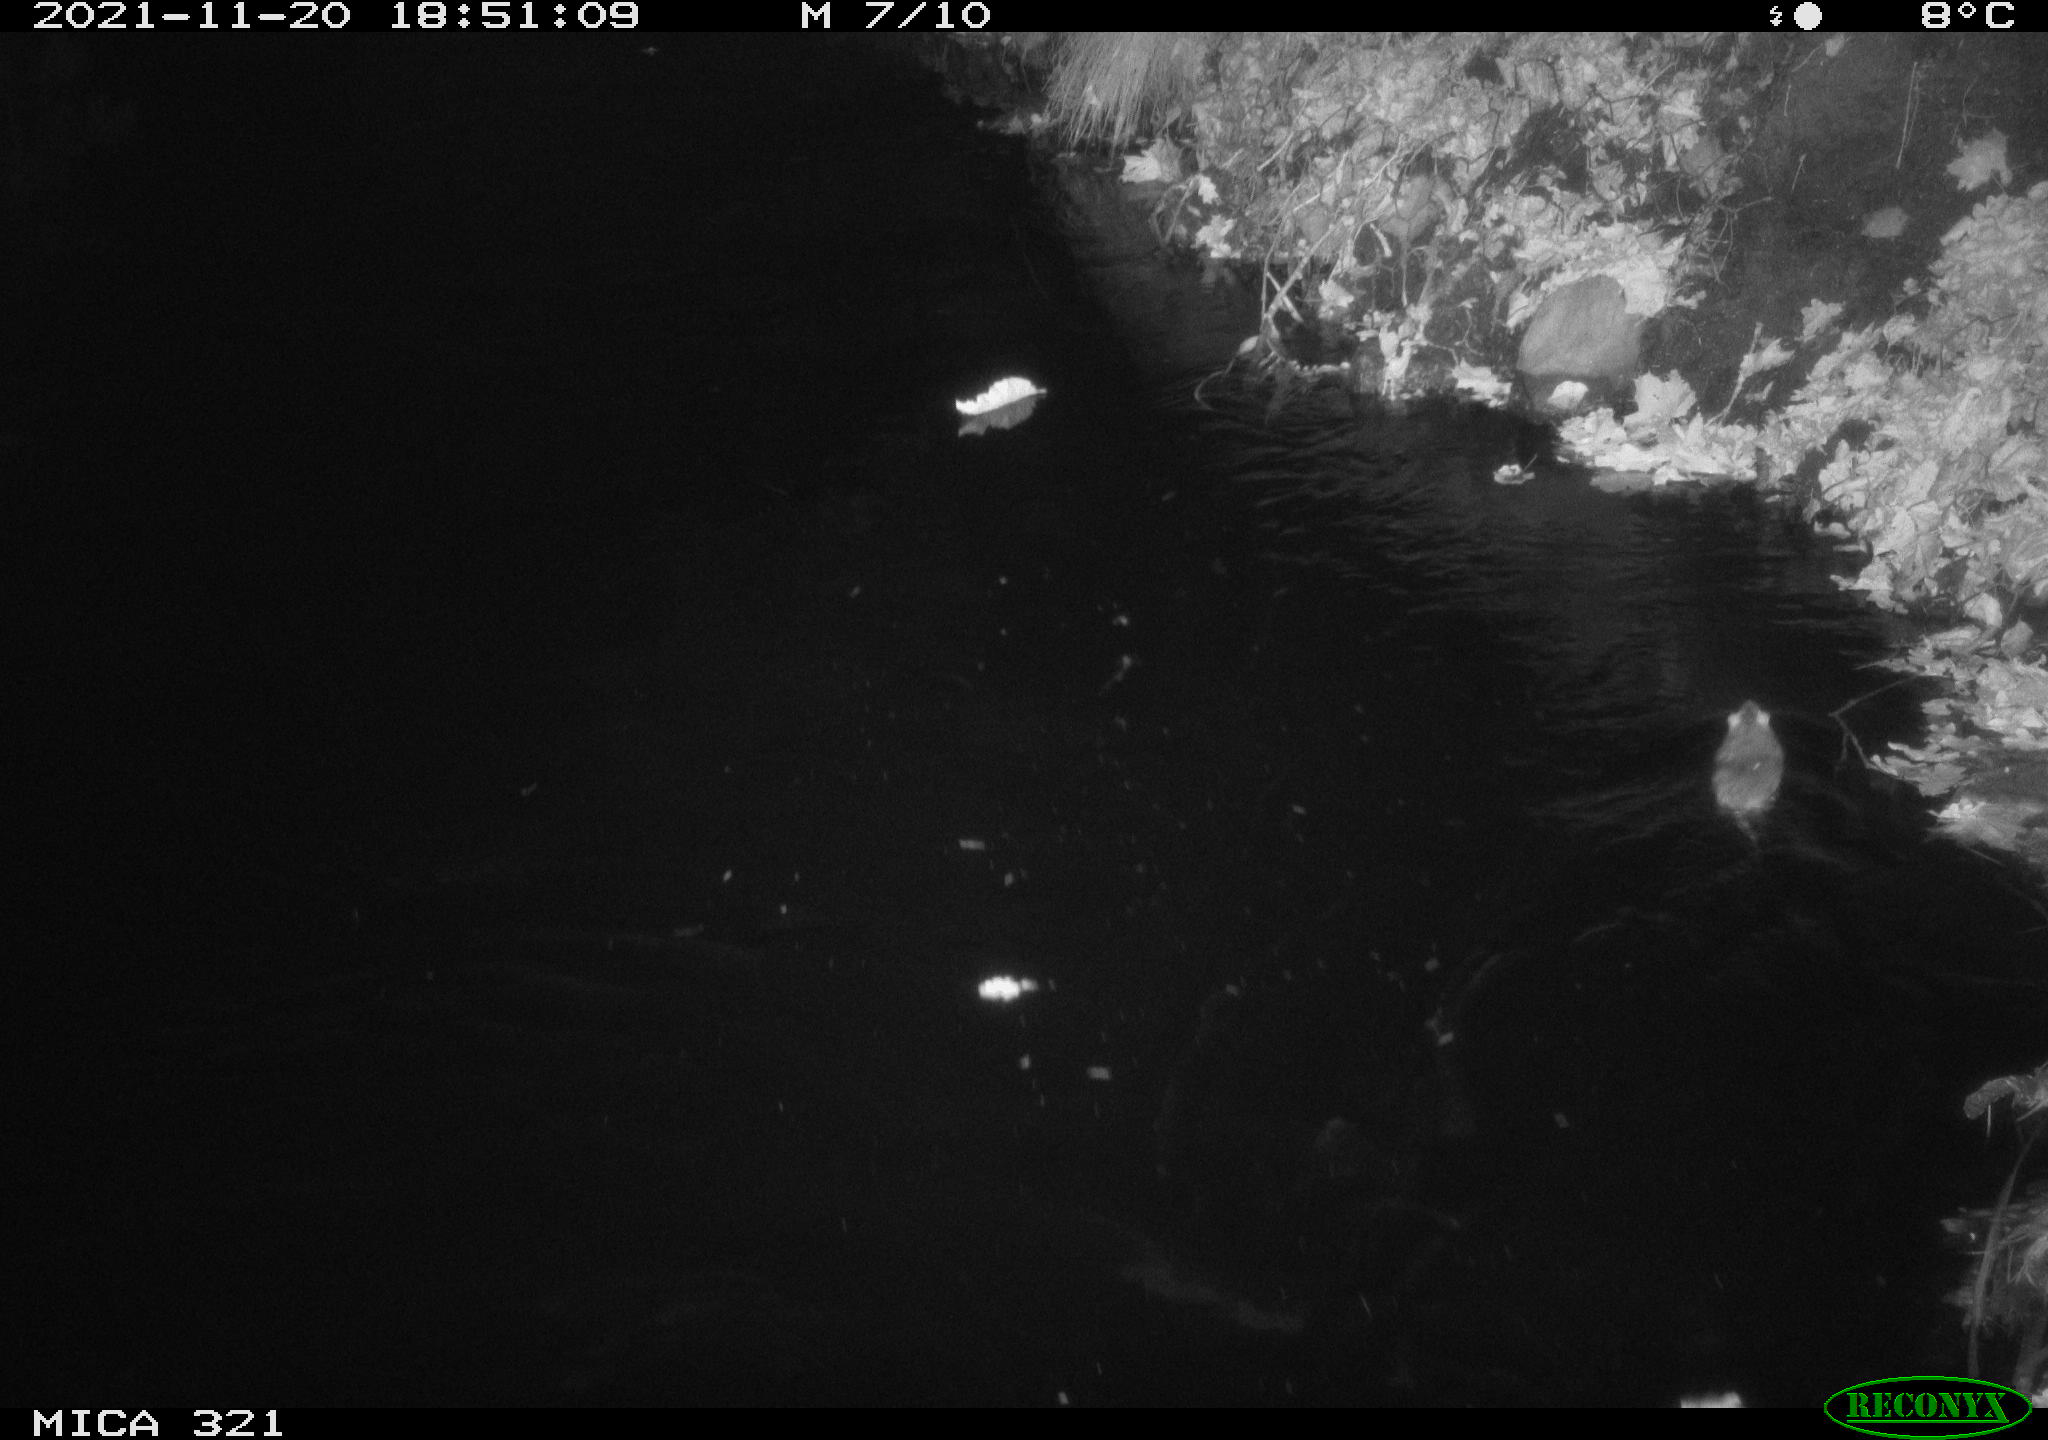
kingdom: Animalia
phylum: Chordata
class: Mammalia
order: Rodentia
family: Muridae
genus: Rattus
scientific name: Rattus norvegicus
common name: Brown rat
